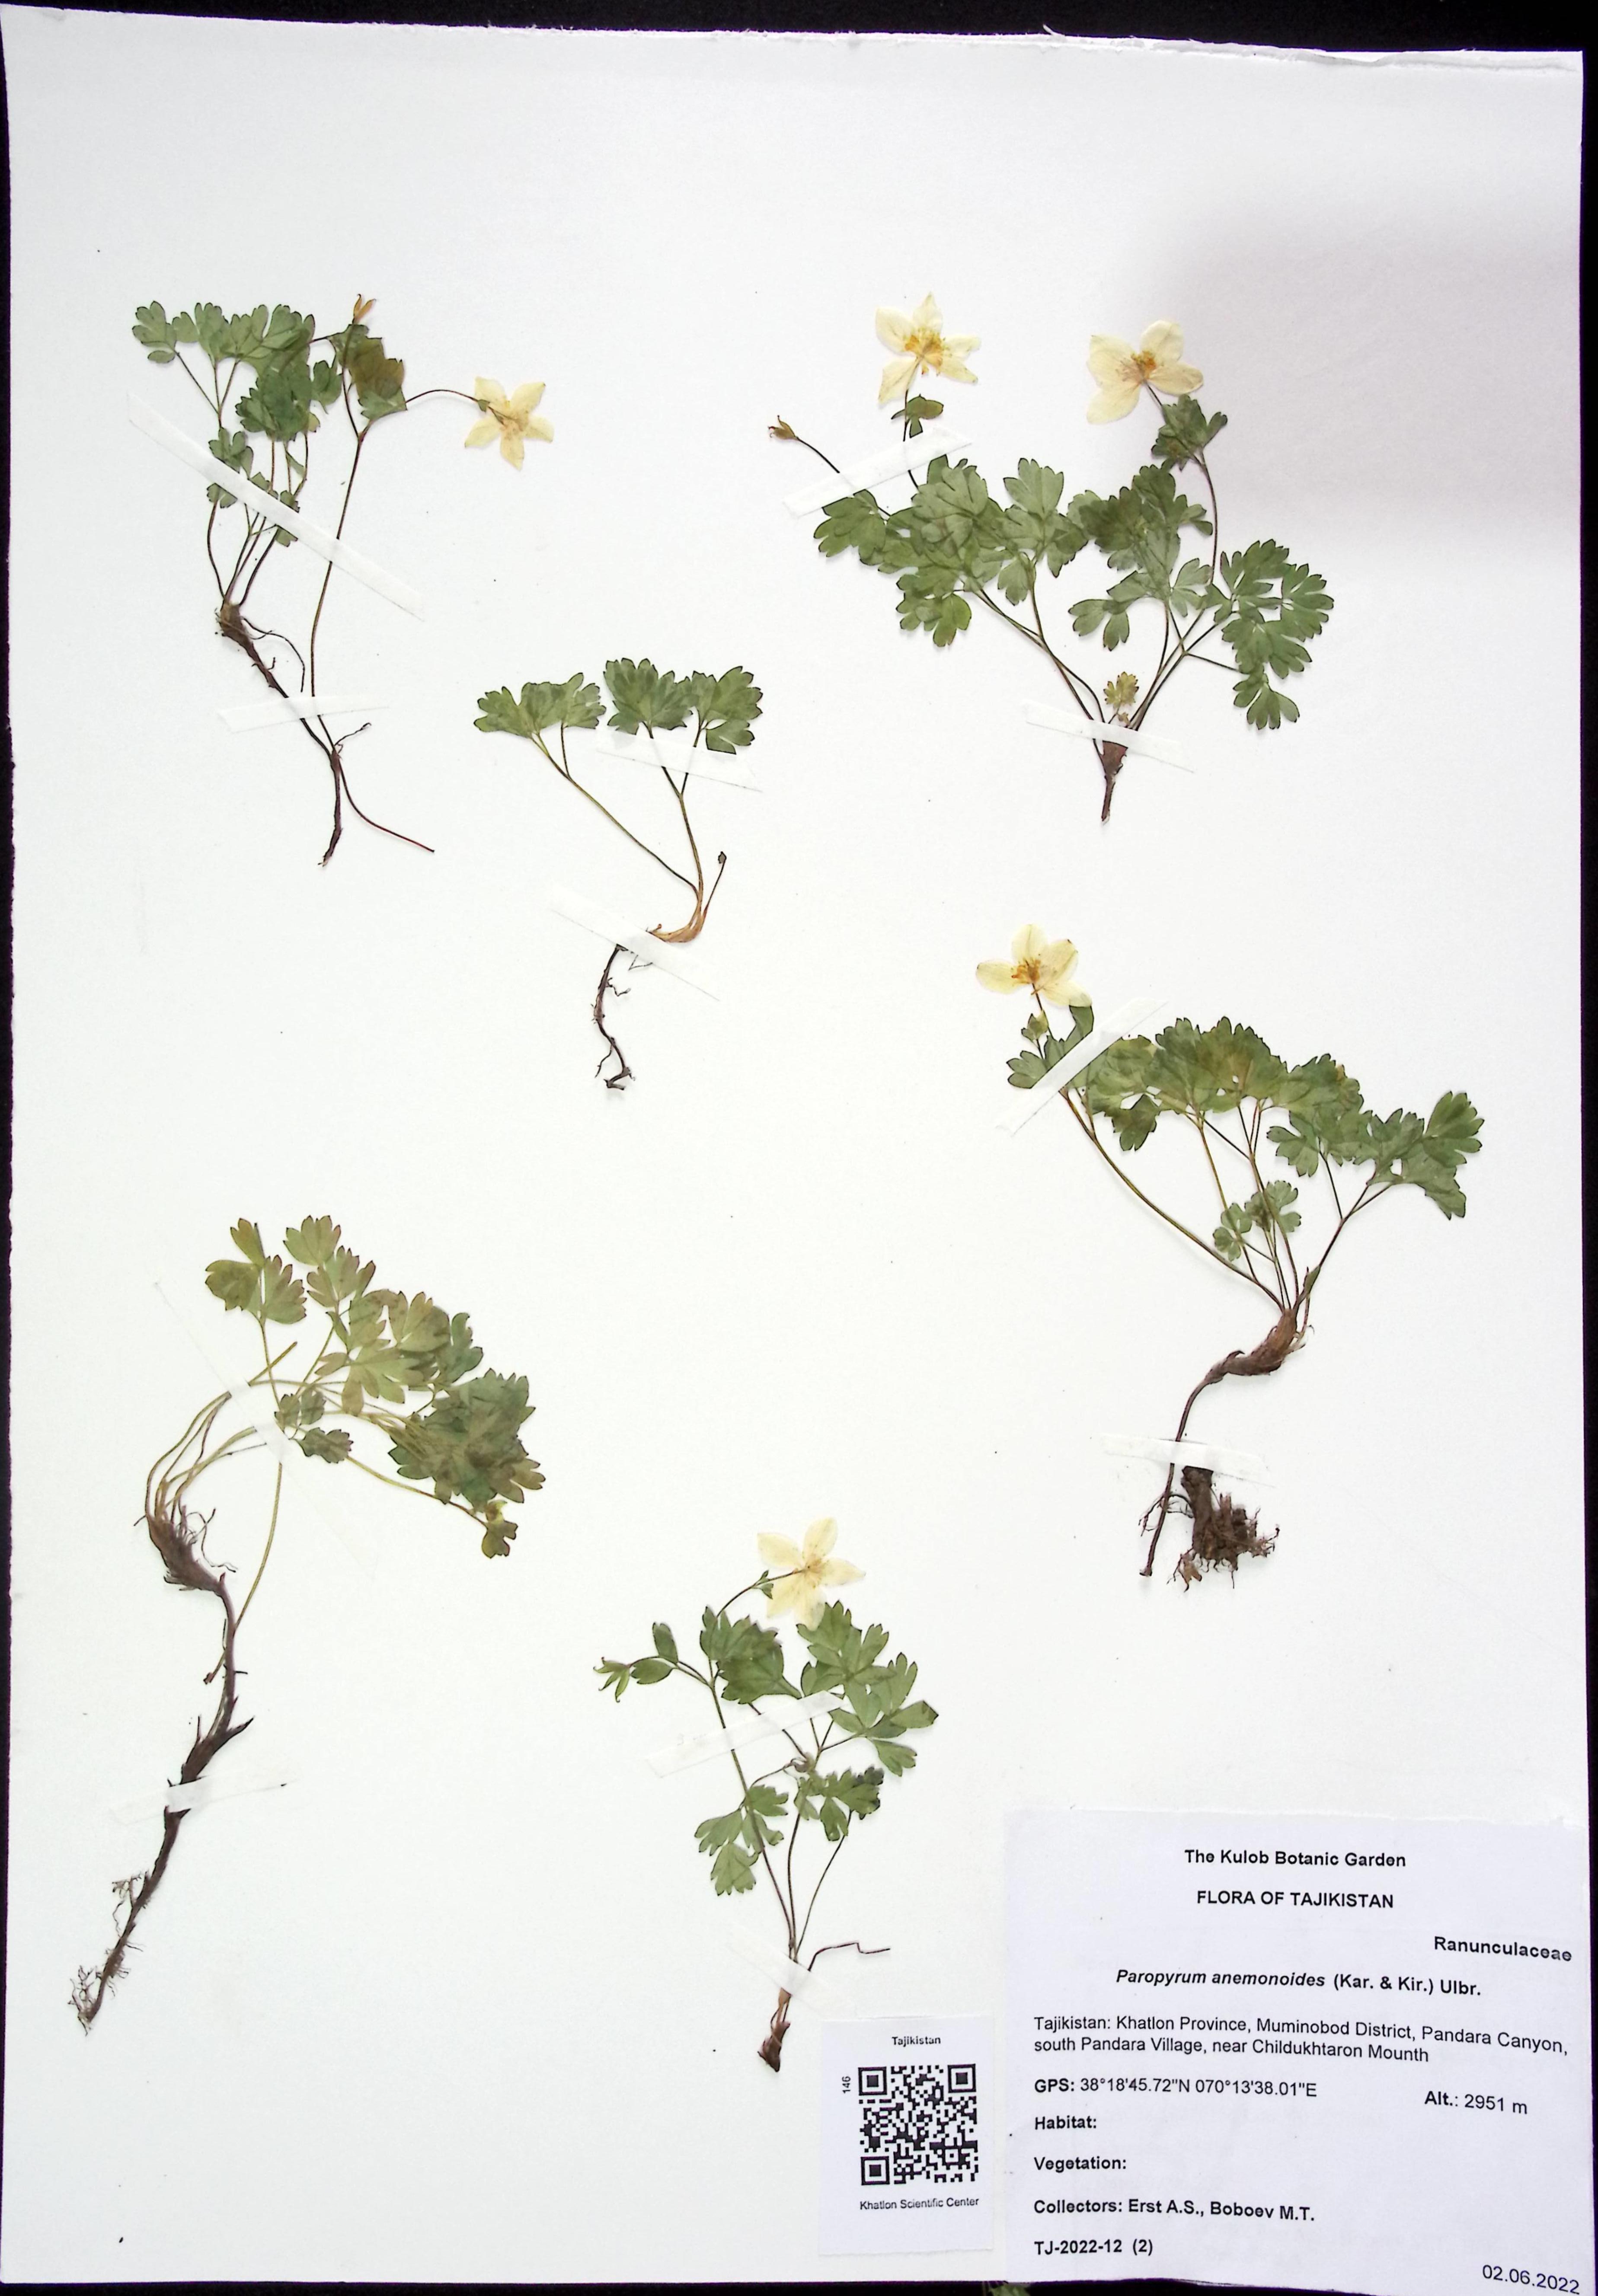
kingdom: Plantae
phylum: Tracheophyta
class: Magnoliopsida
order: Ranunculales
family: Ranunculaceae
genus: Isopyrum
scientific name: Isopyrum anemonoides
